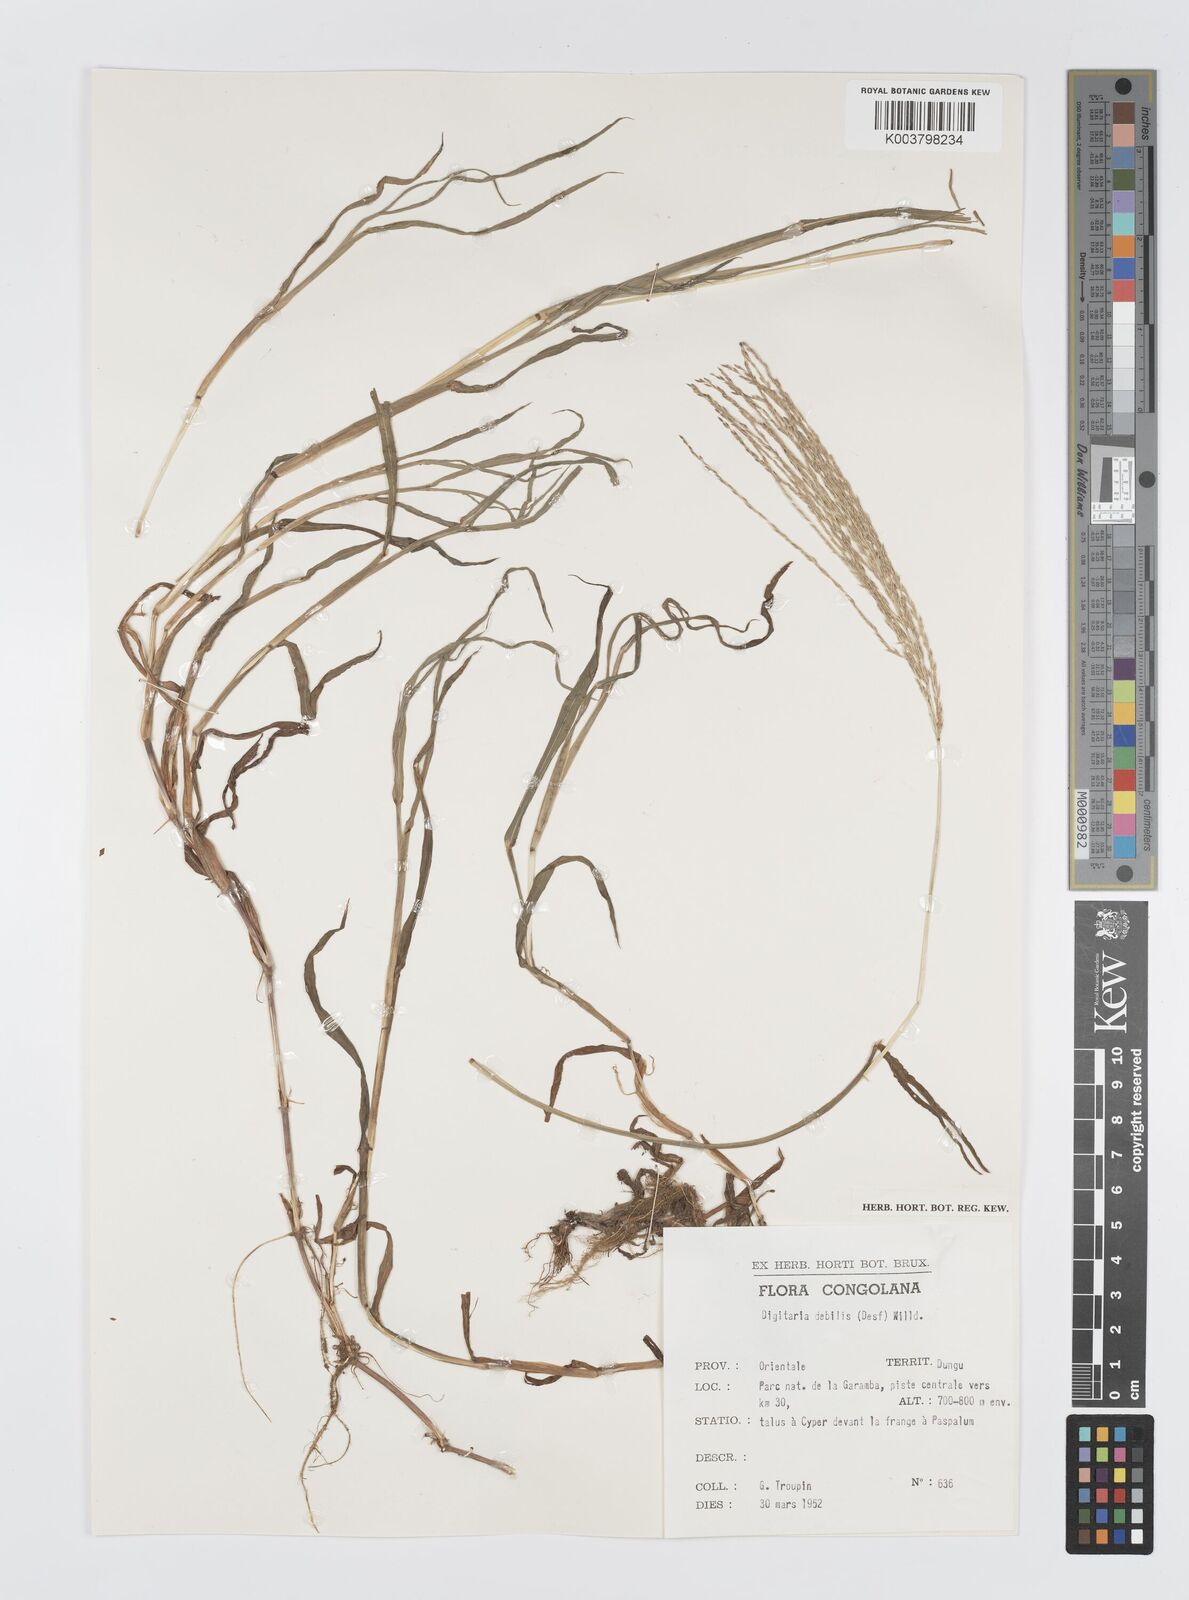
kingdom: Plantae
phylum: Tracheophyta
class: Liliopsida
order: Poales
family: Poaceae
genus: Digitaria
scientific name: Digitaria debilis
